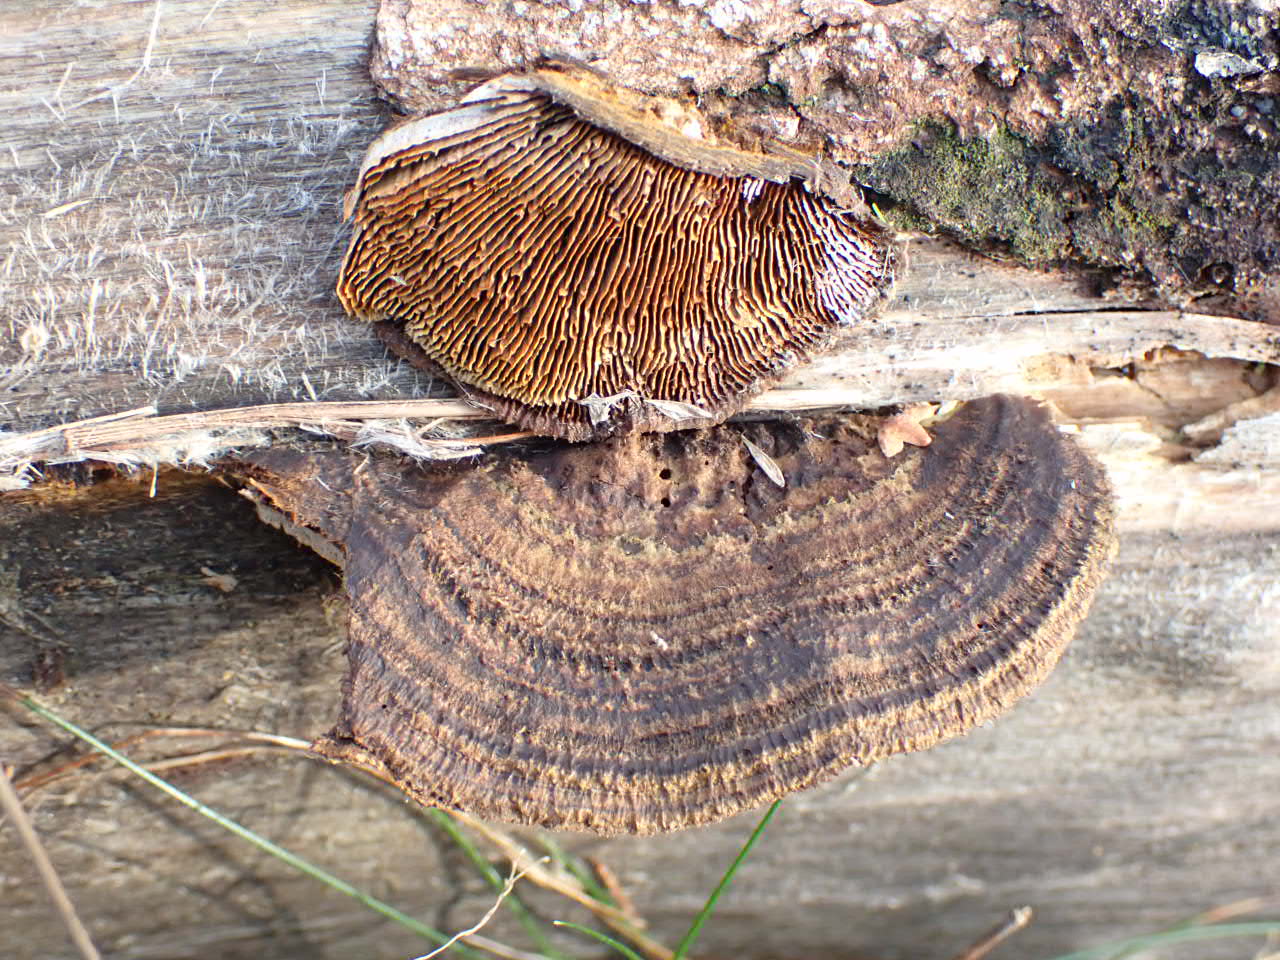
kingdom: Fungi
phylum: Basidiomycota
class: Agaricomycetes
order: Gloeophyllales
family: Gloeophyllaceae
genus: Gloeophyllum
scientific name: Gloeophyllum sepiarium
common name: fyrre-korkhat
